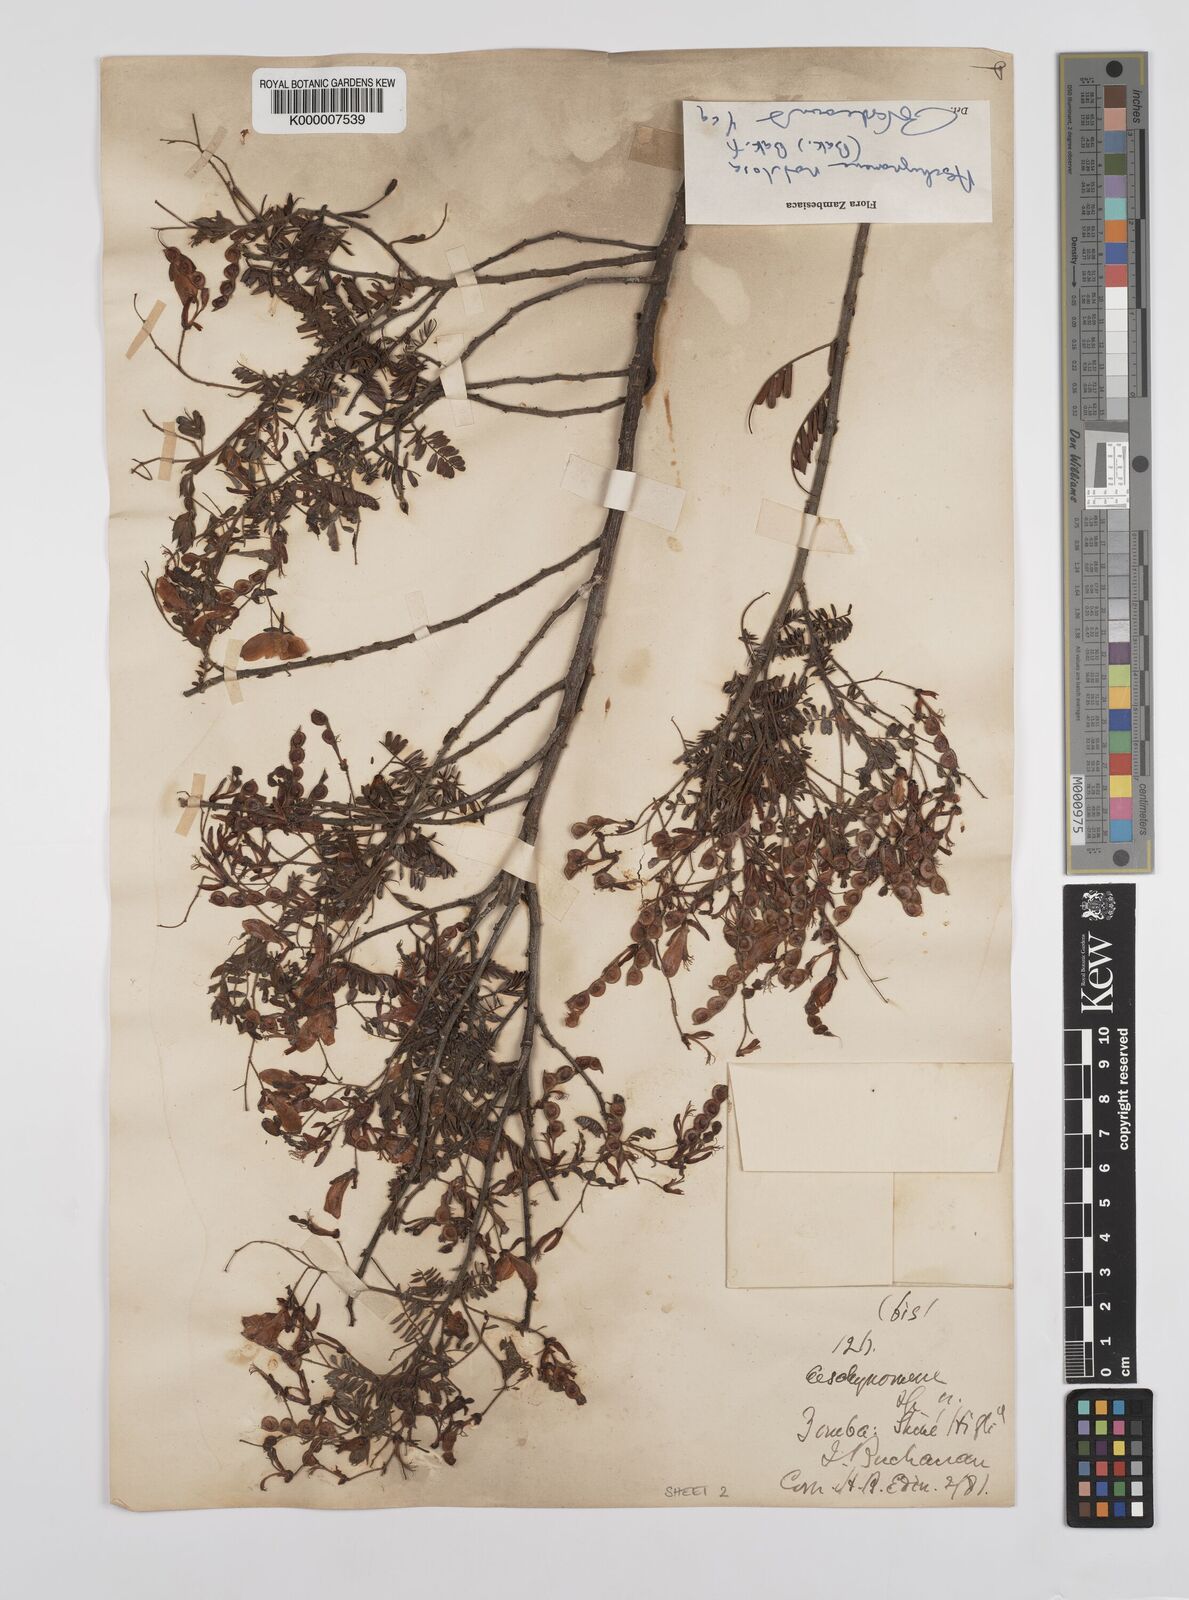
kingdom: Plantae
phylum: Tracheophyta
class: Magnoliopsida
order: Fabales
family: Fabaceae
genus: Aeschynomene
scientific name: Aeschynomene nodulosa
